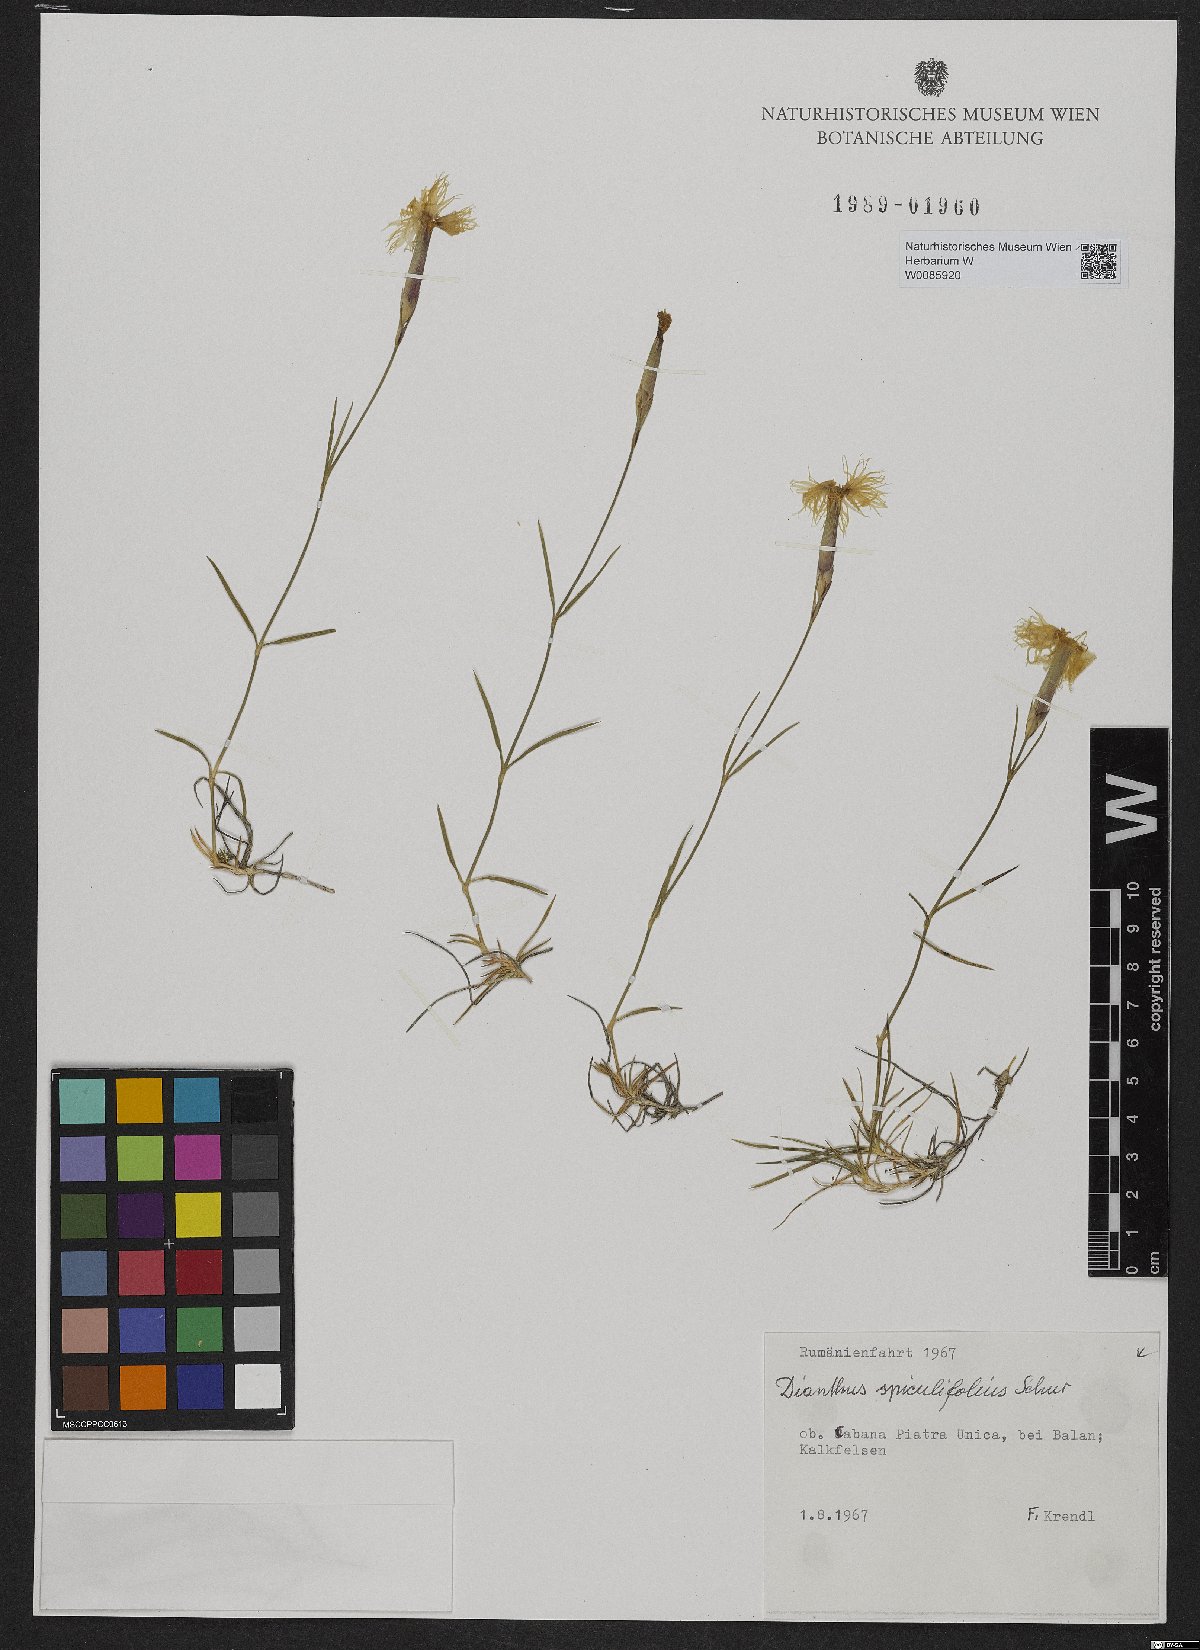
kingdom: Plantae
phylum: Tracheophyta
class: Magnoliopsida
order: Caryophyllales
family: Caryophyllaceae
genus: Dianthus
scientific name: Dianthus spiculifolius
